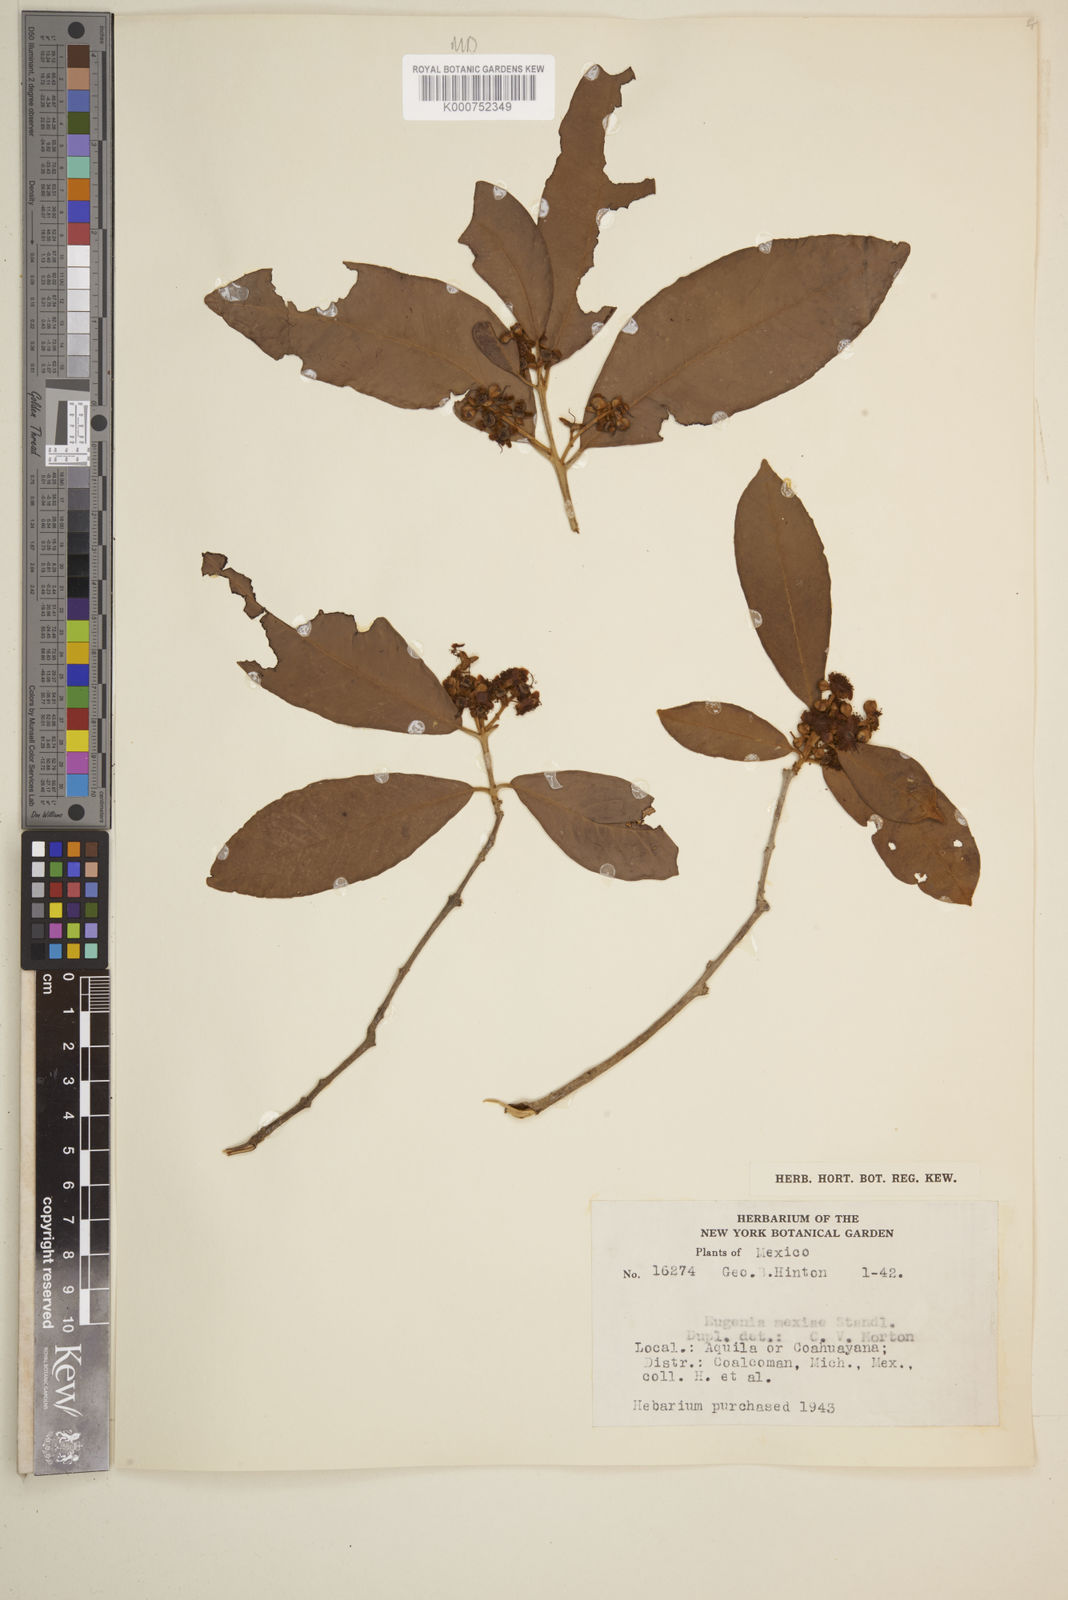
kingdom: Plantae
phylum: Tracheophyta
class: Magnoliopsida
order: Myrtales
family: Myrtaceae
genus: Eugenia
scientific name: Eugenia salamensis
